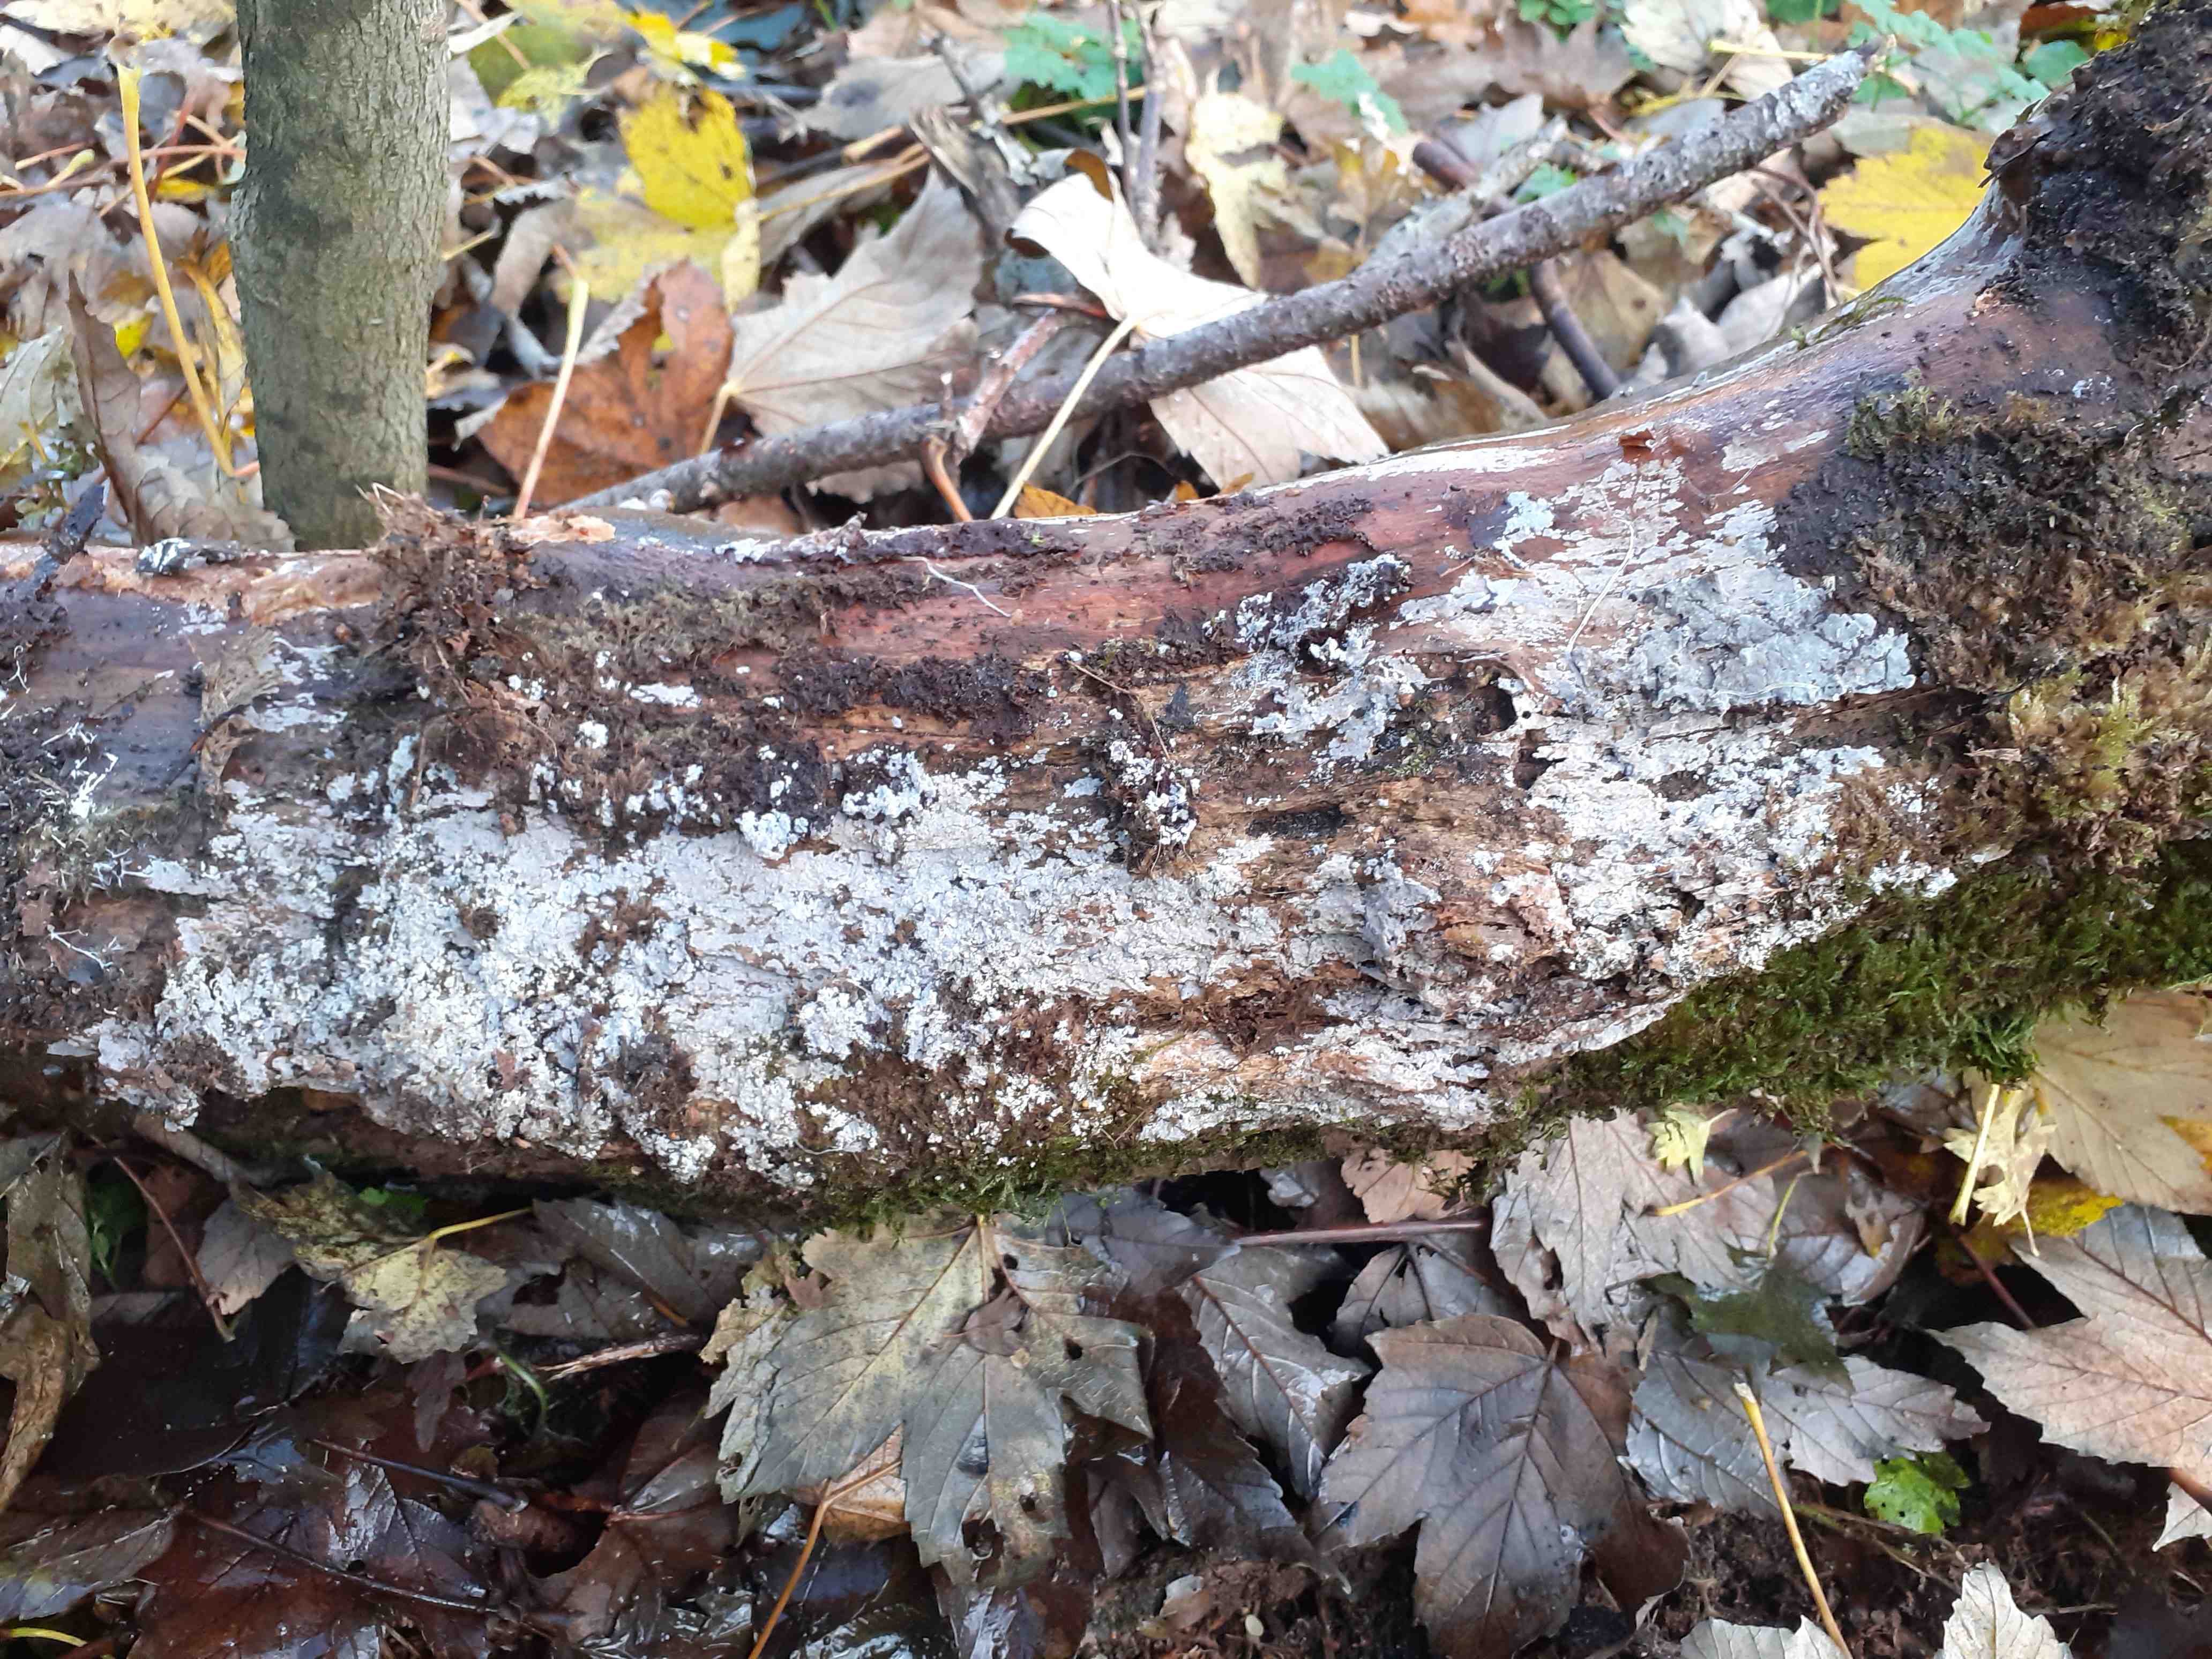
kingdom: Fungi
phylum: Basidiomycota
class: Agaricomycetes
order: Polyporales
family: Meruliaceae
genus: Scopuloides
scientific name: Scopuloides rimosa
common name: dughinde
